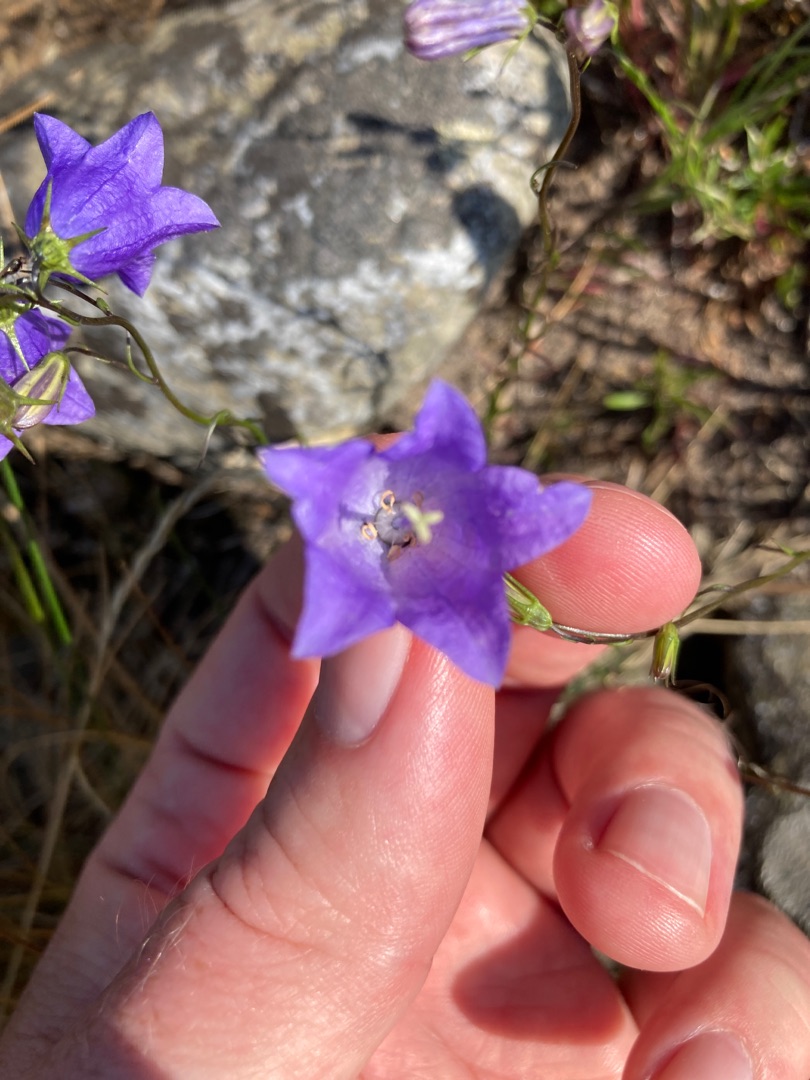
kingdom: Plantae
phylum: Tracheophyta
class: Magnoliopsida
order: Asterales
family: Campanulaceae
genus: Campanula
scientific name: Campanula rotundifolia
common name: Liden klokke
